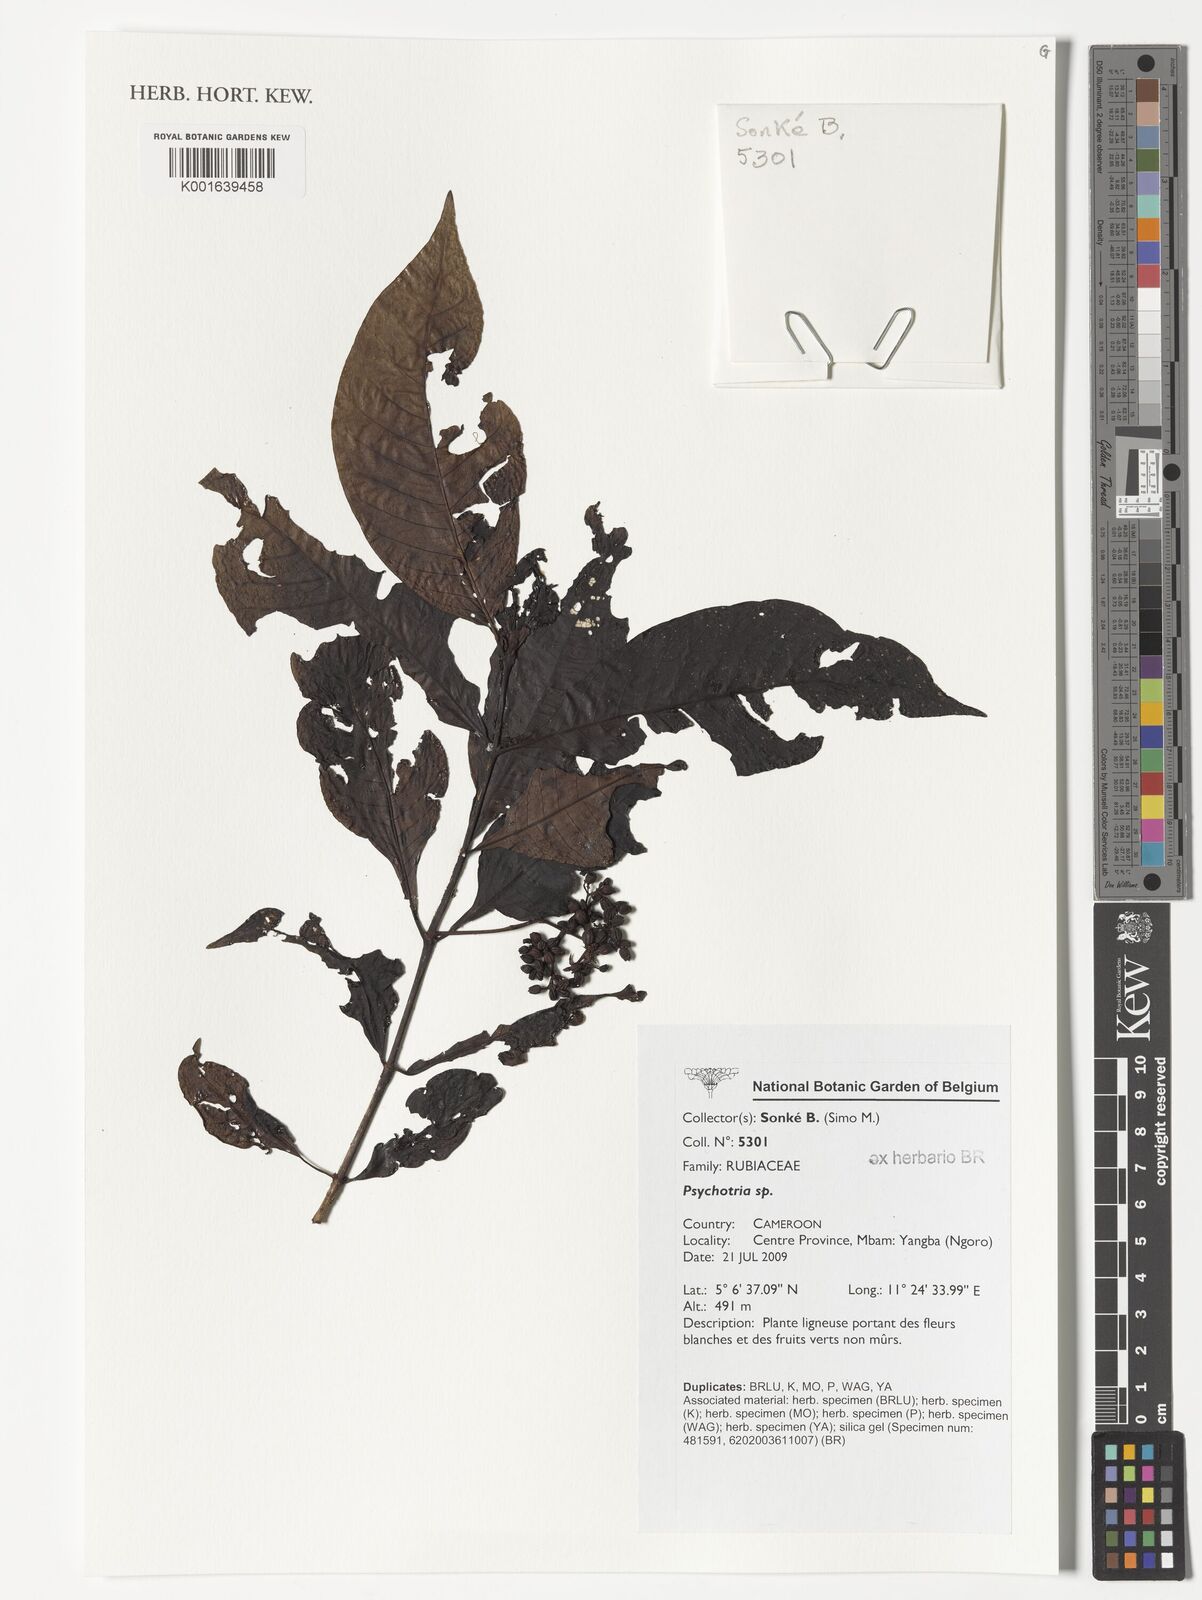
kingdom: Plantae
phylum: Tracheophyta
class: Magnoliopsida
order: Gentianales
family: Rubiaceae
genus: Psychotria
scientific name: Psychotria
